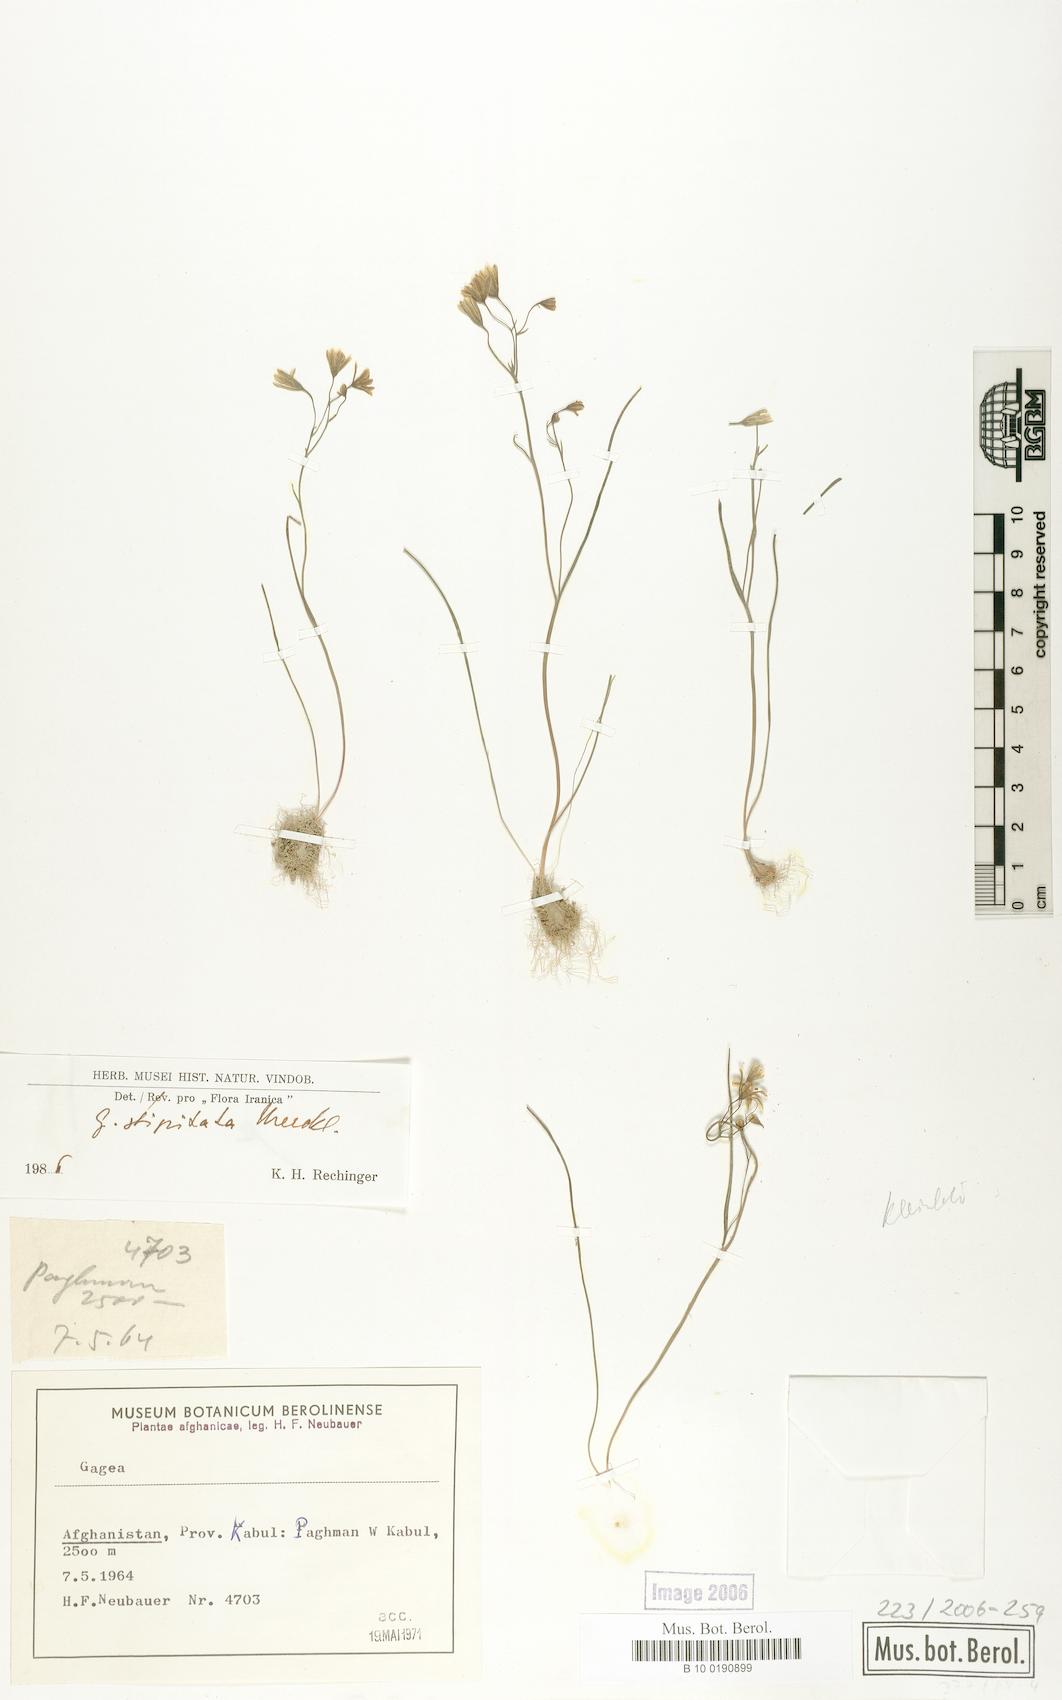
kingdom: Plantae
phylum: Tracheophyta
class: Liliopsida
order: Liliales
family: Liliaceae
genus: Gagea
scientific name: Gagea kunawurensis
